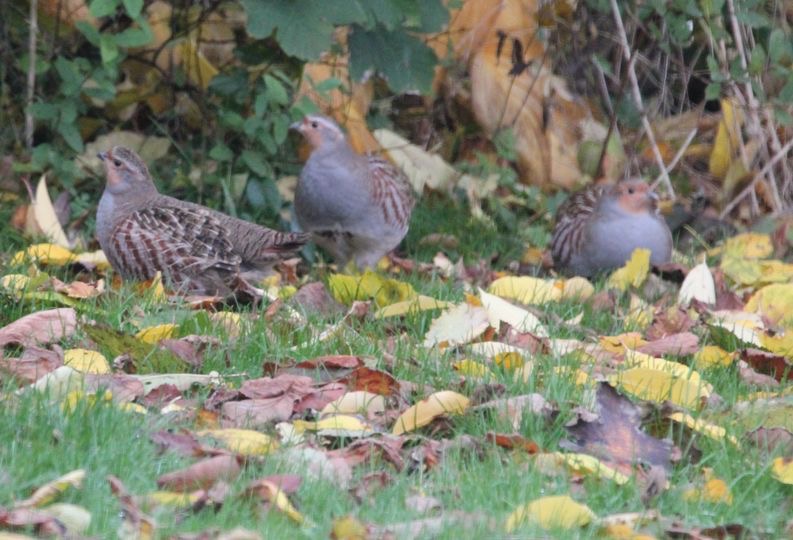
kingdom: Animalia
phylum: Chordata
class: Aves
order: Galliformes
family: Phasianidae
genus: Perdix
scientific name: Perdix perdix
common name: Agerhøne
